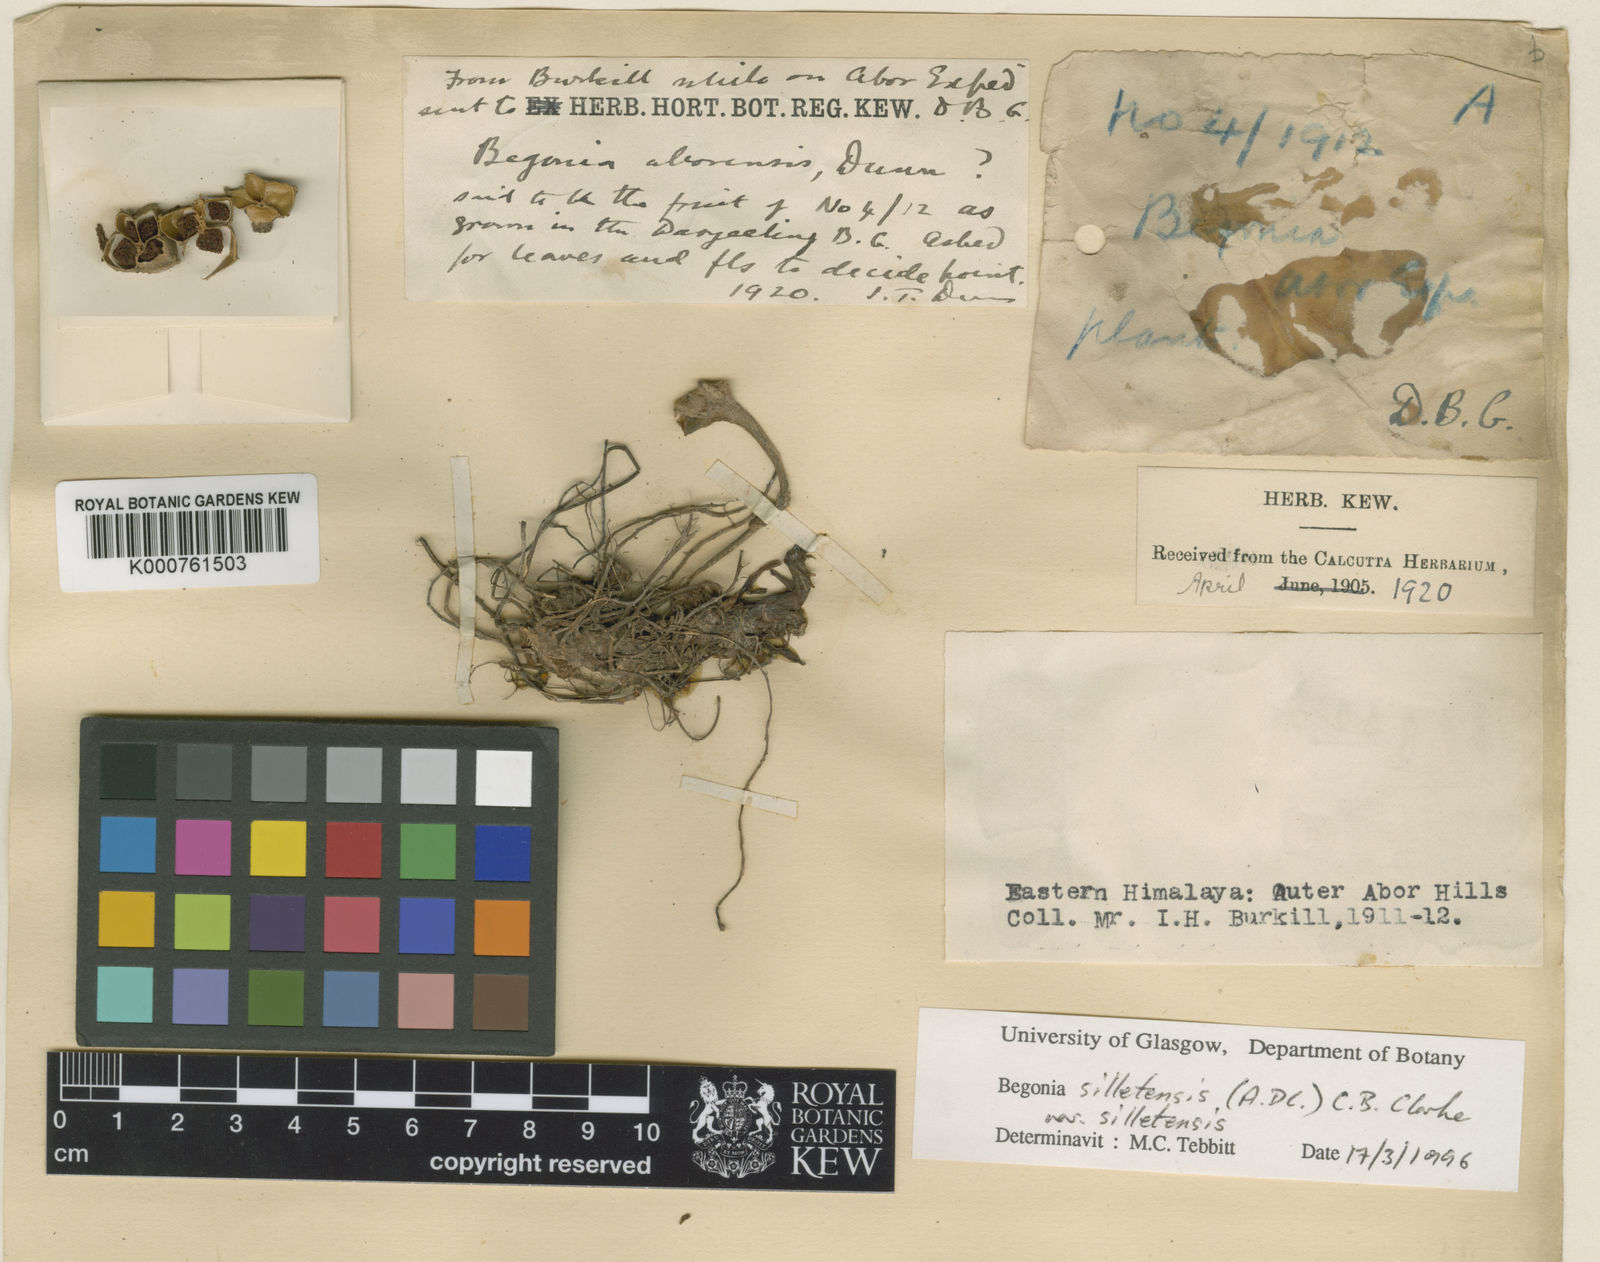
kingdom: Plantae
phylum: Tracheophyta
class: Magnoliopsida
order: Cucurbitales
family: Begoniaceae
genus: Begonia
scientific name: Begonia aborensis
